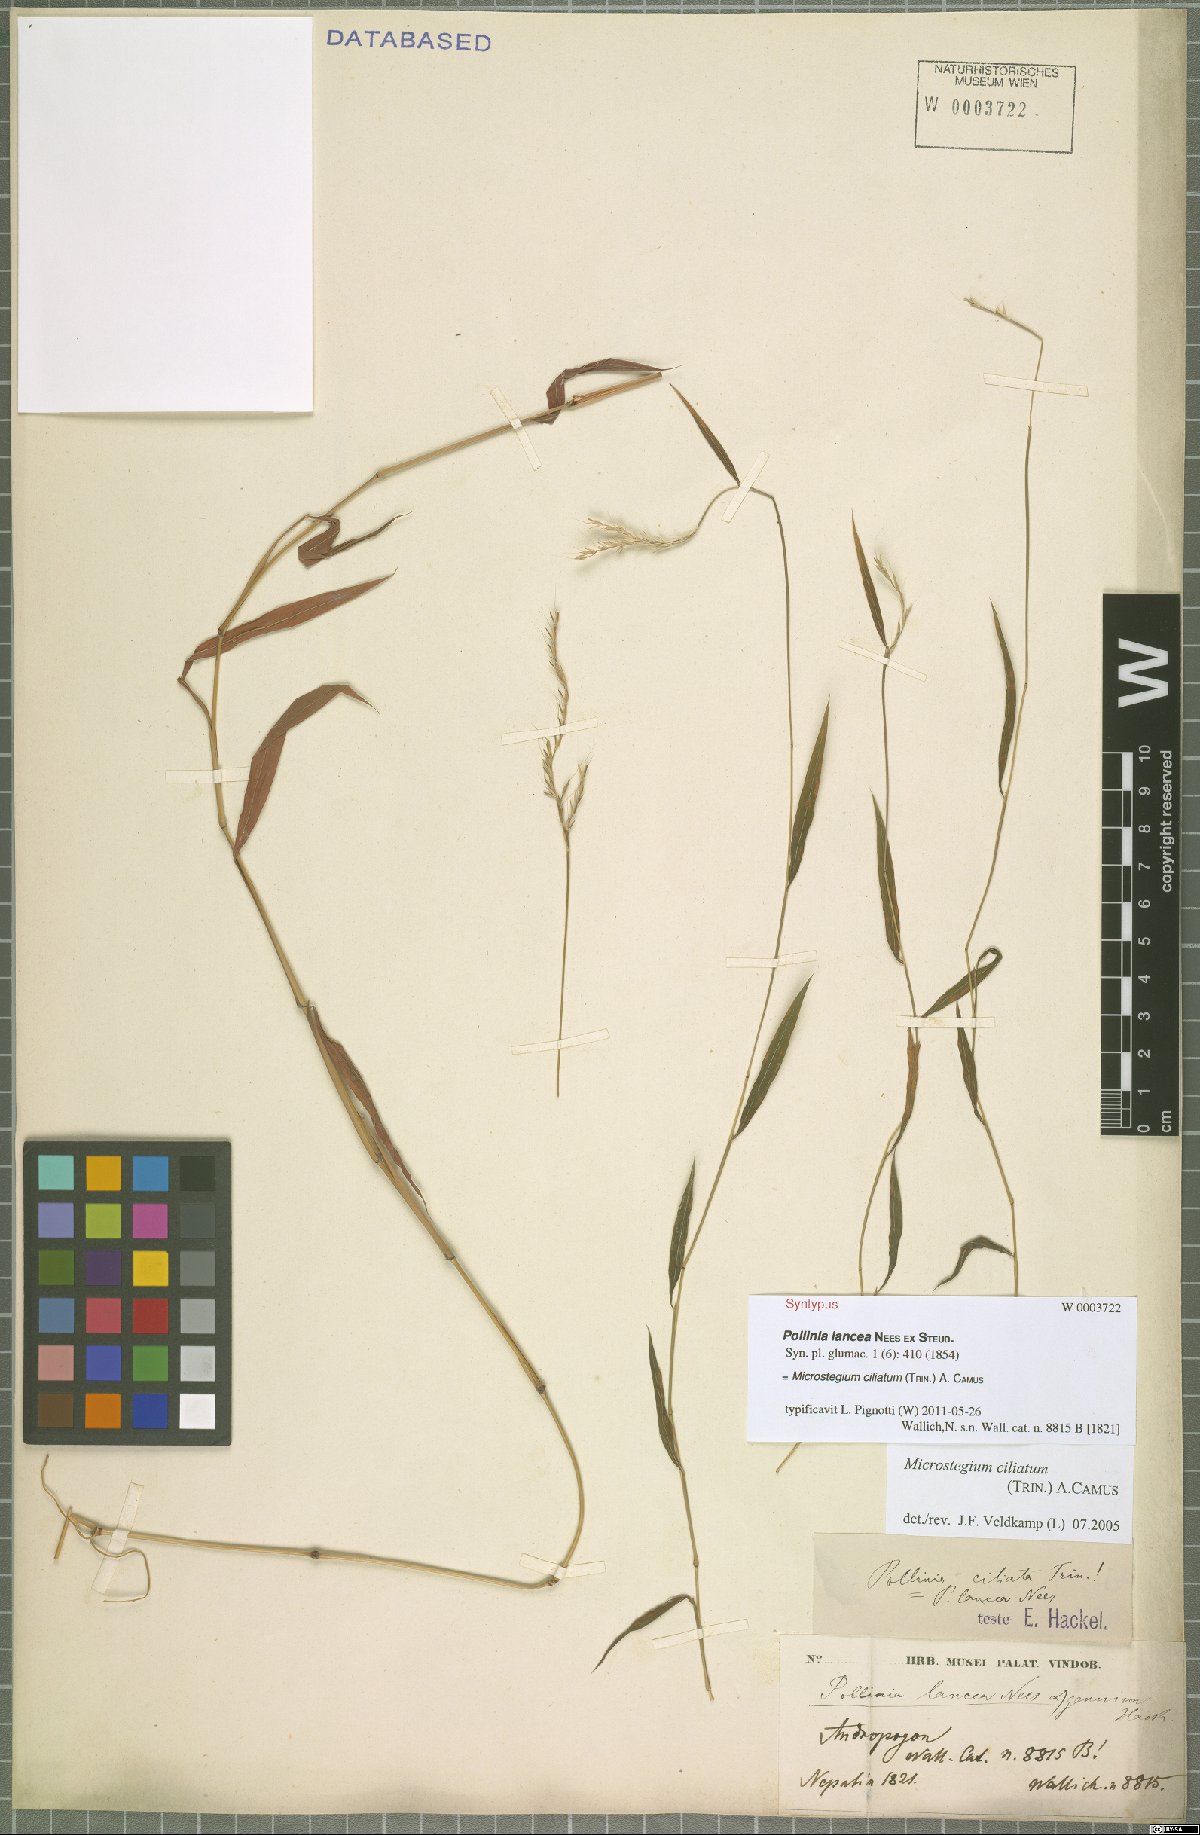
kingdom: Plantae
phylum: Tracheophyta
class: Liliopsida
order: Poales
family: Poaceae
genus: Microstegium
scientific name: Microstegium fasciculatum
